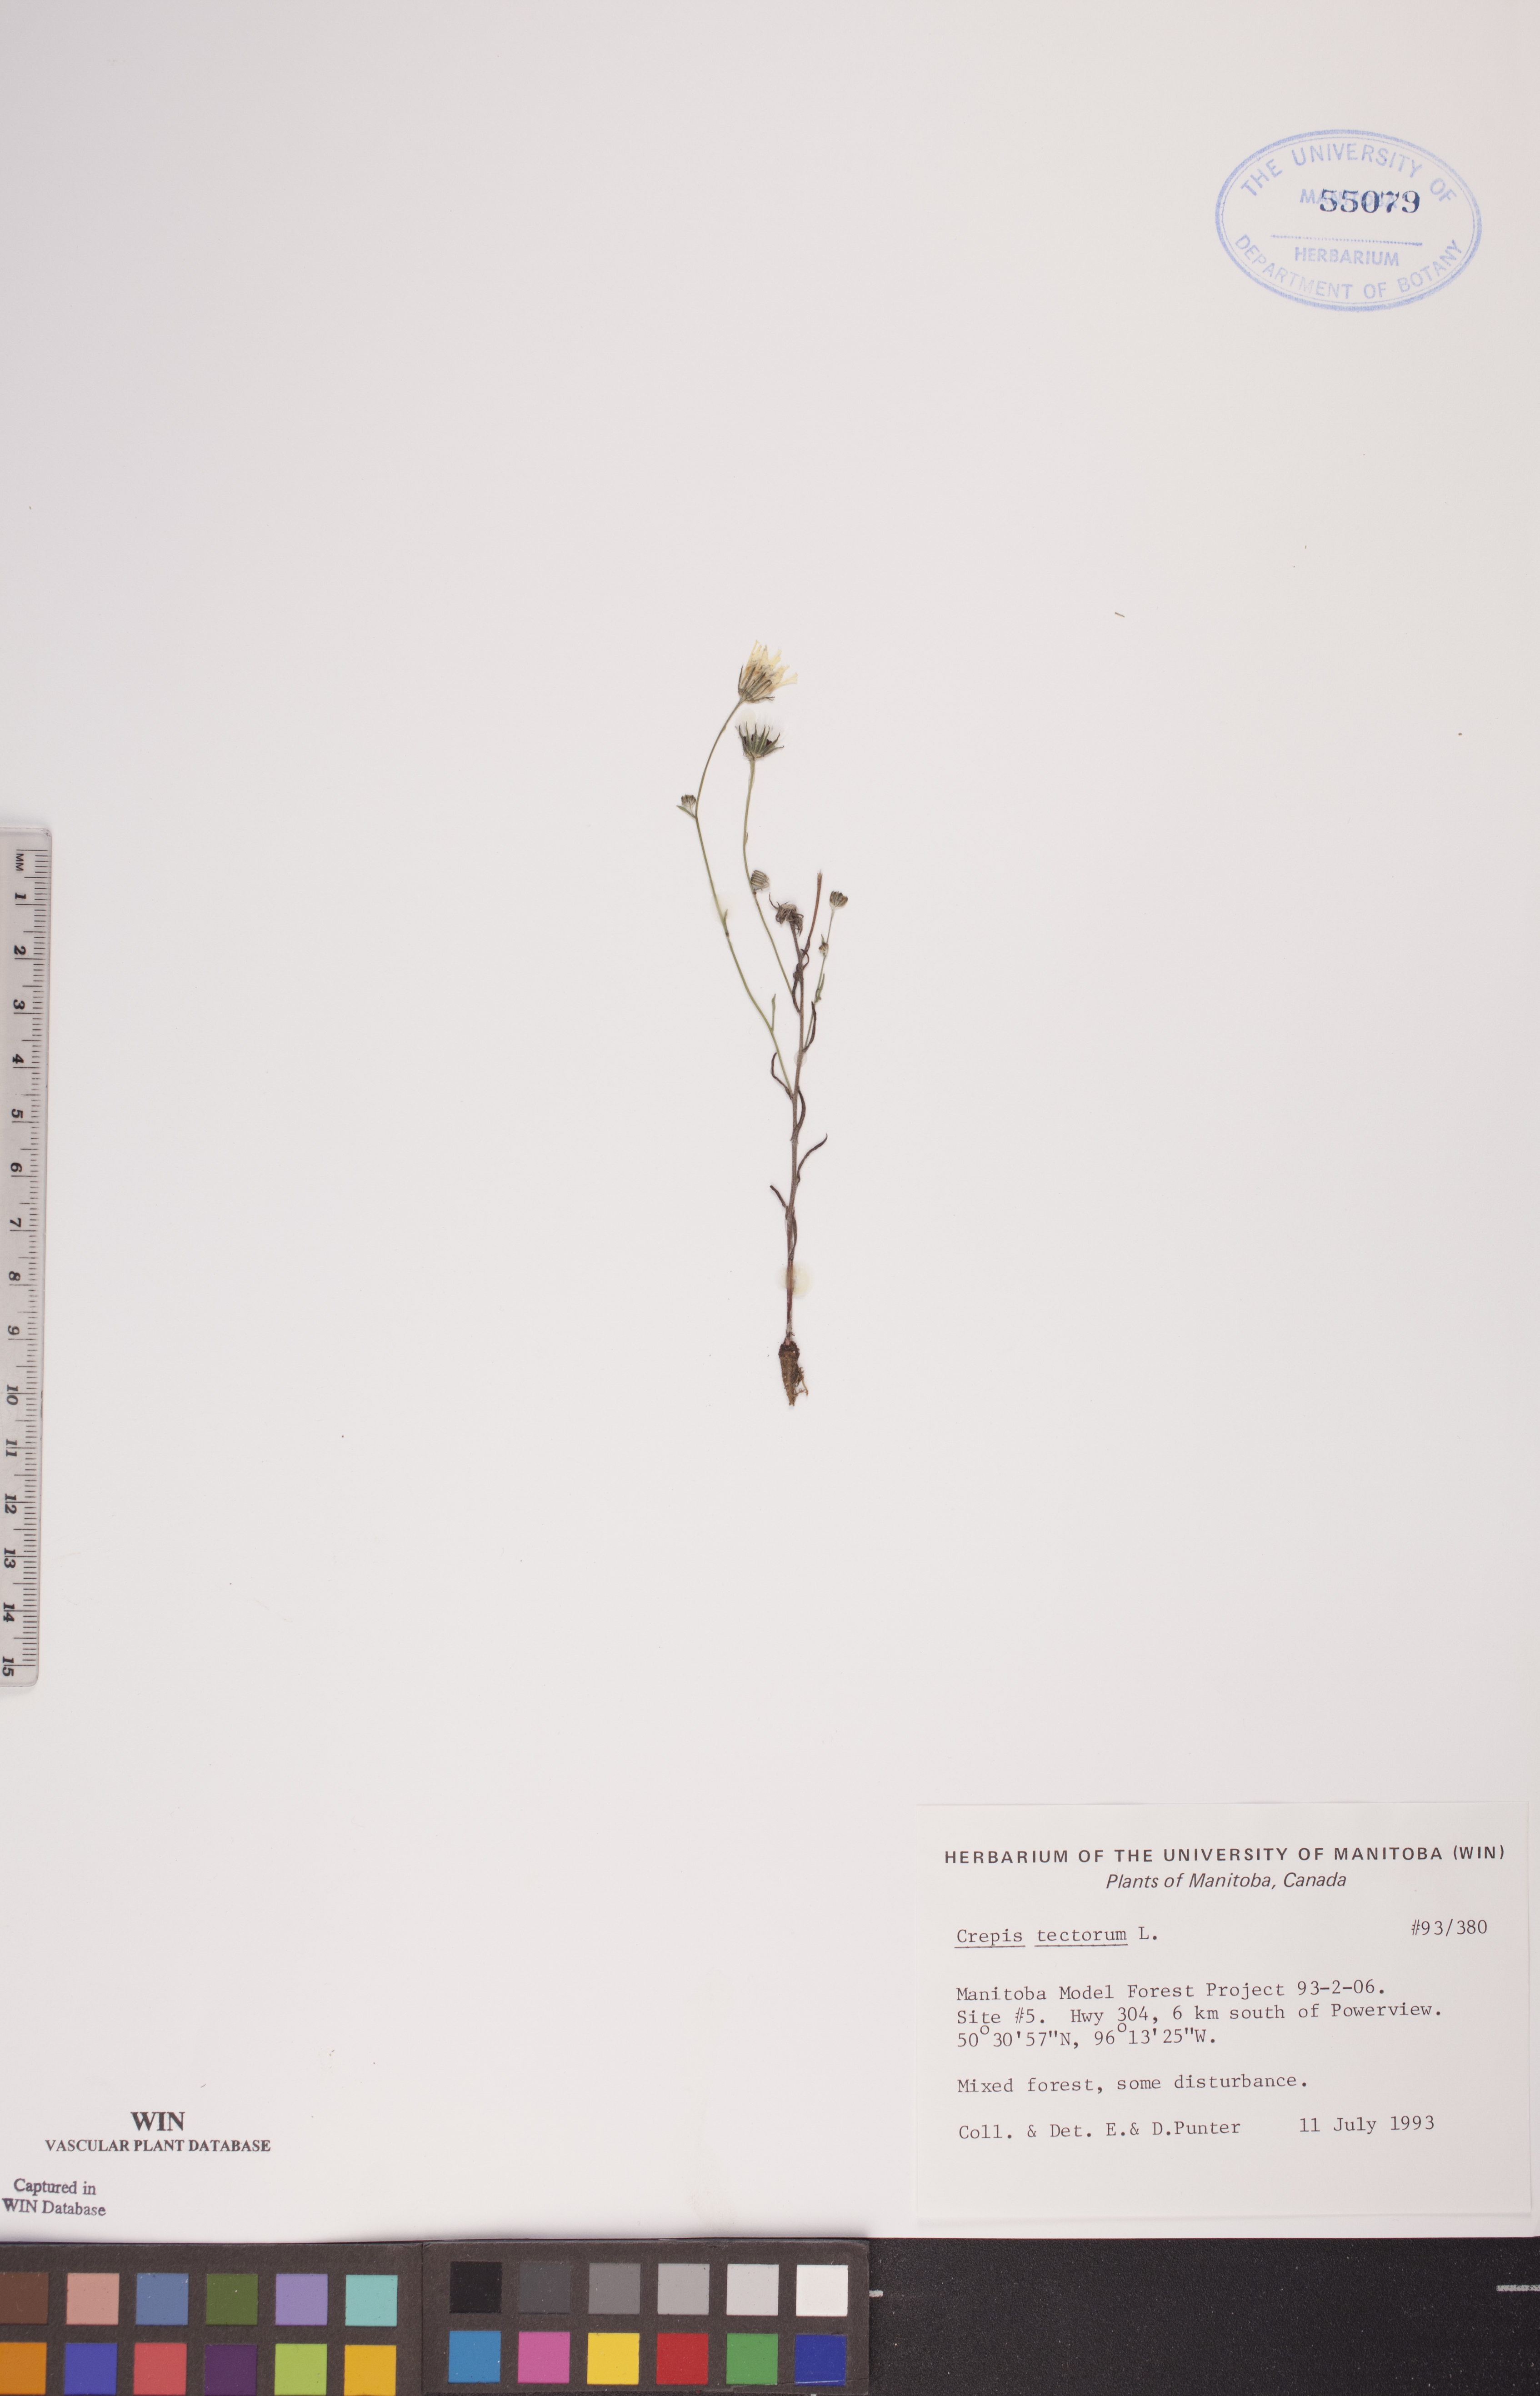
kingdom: Plantae
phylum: Tracheophyta
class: Magnoliopsida
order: Asterales
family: Asteraceae
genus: Crepis
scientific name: Crepis tectorum
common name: Narrow-leaved hawk's-beard
